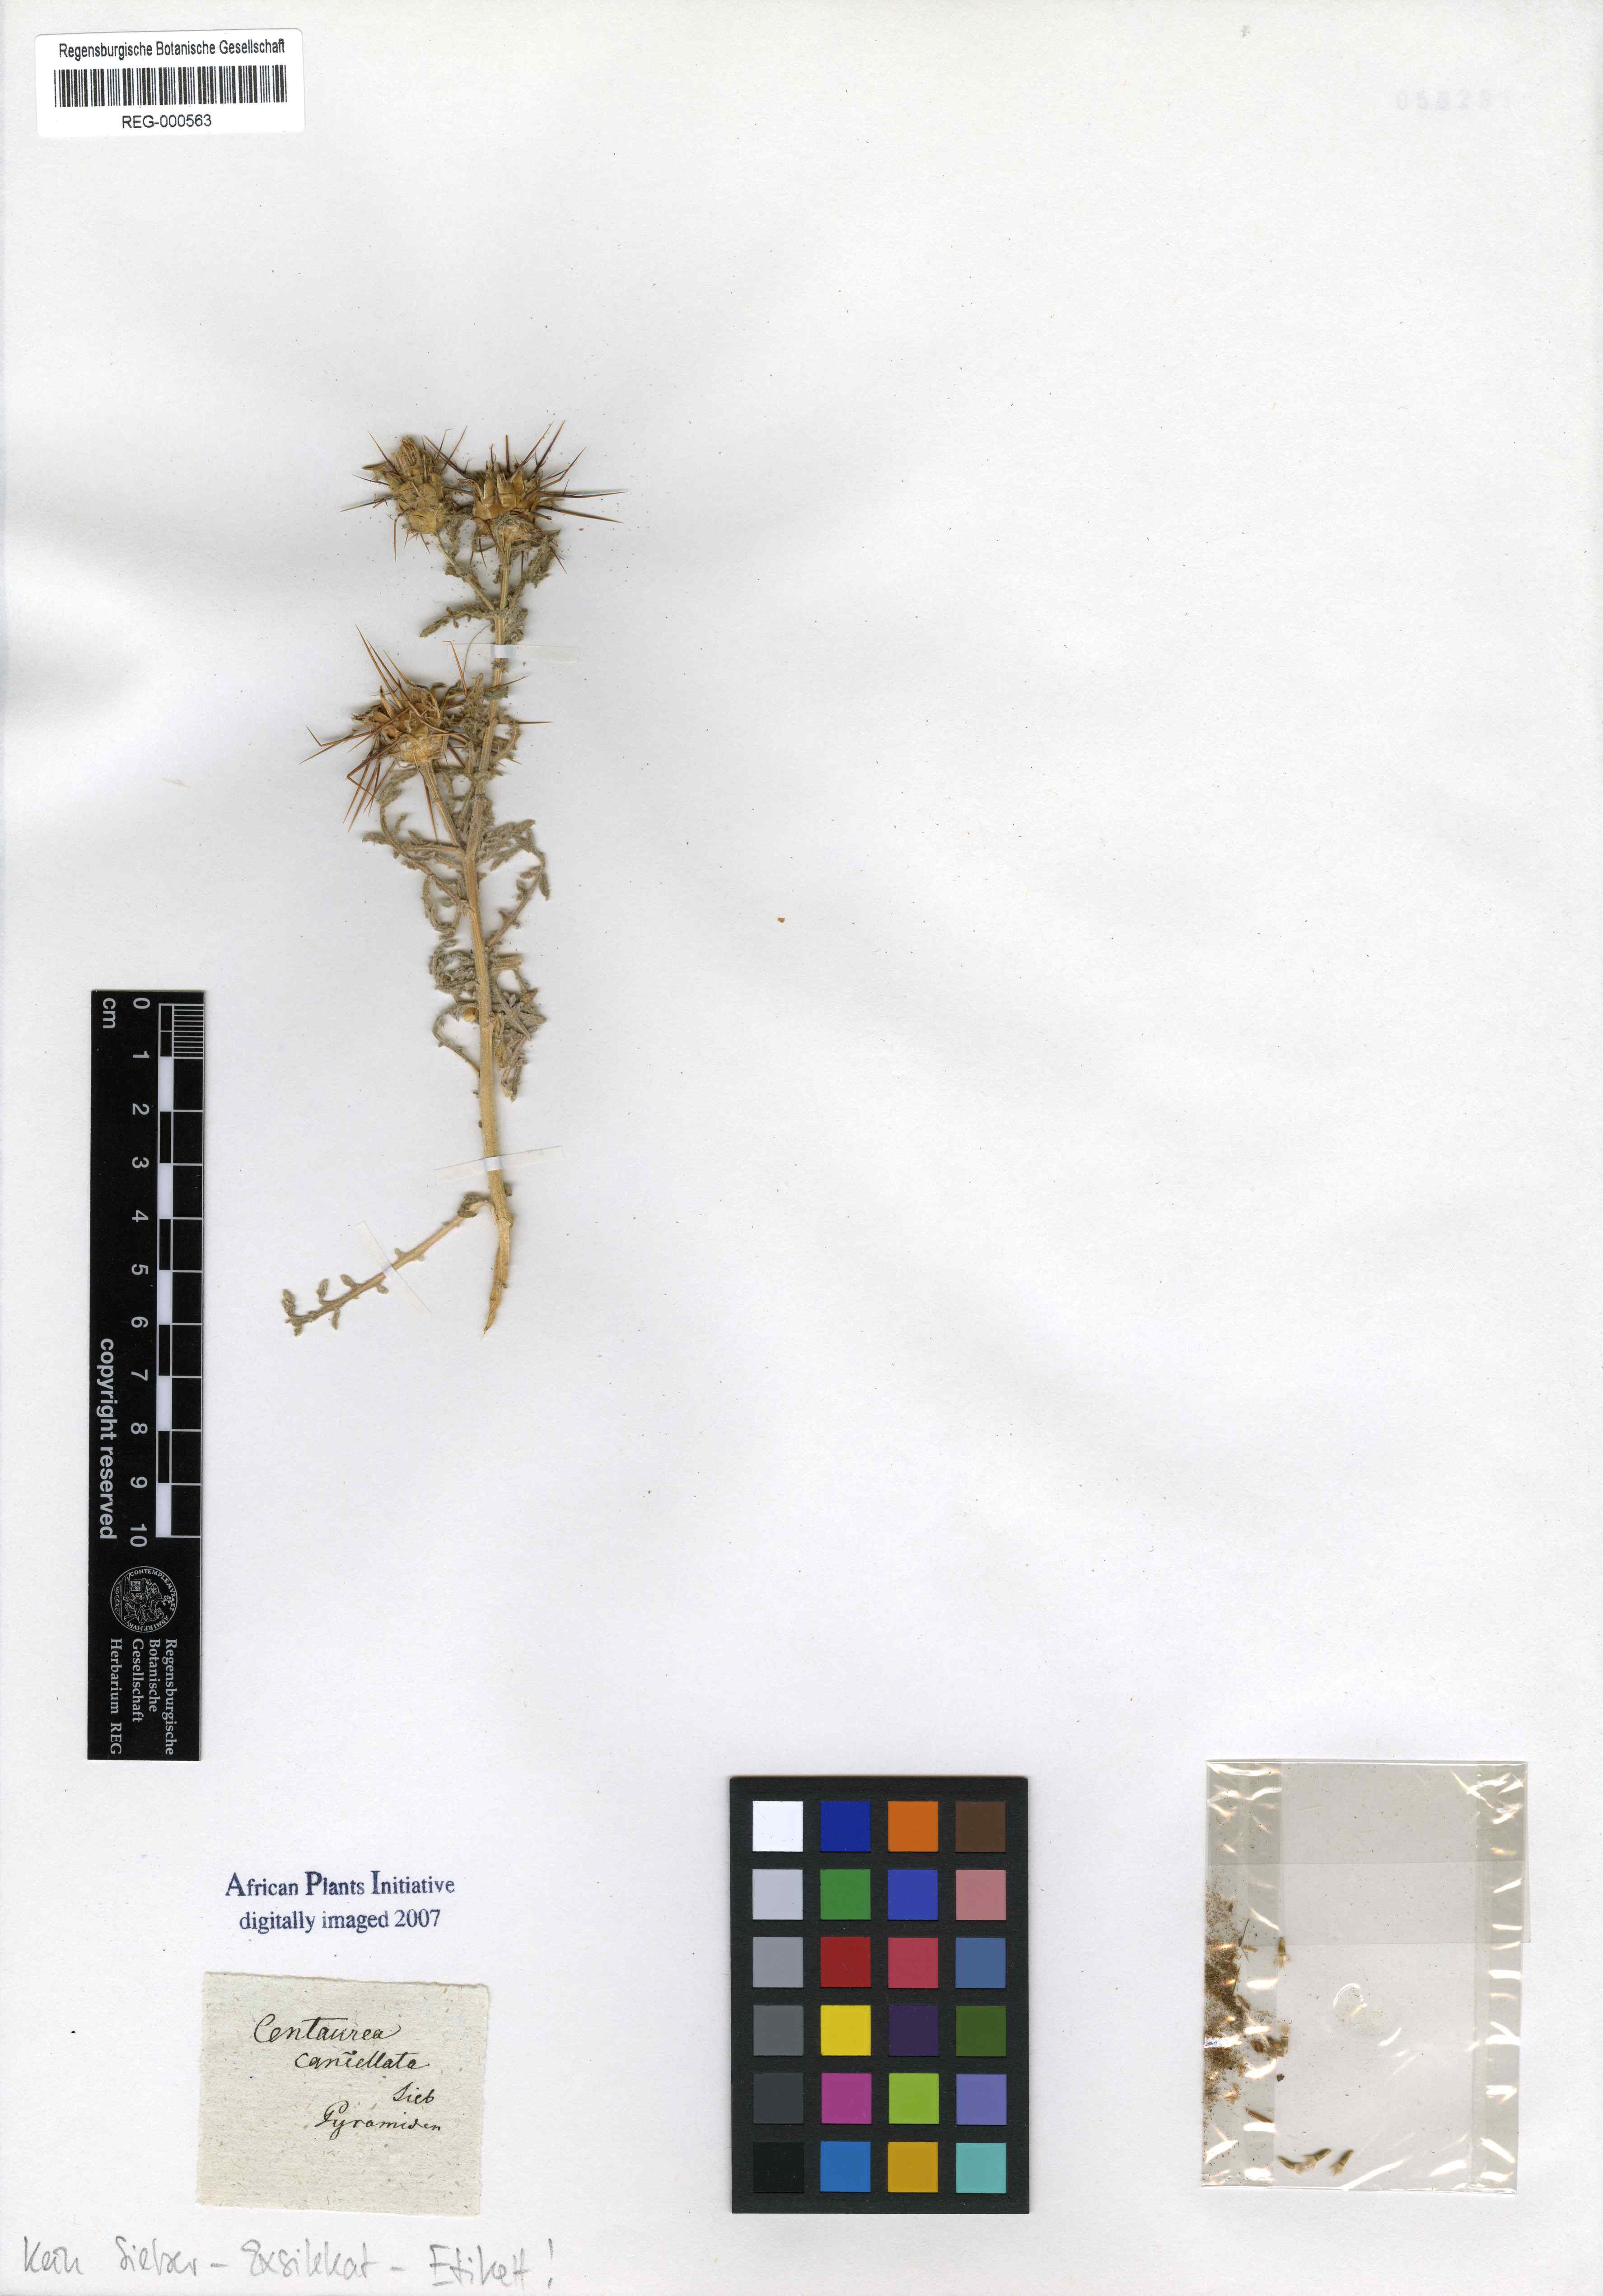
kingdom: Plantae
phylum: Tracheophyta
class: Magnoliopsida
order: Asterales
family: Asteraceae
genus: Centaurea
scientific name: Centaurea aegyptiaca
